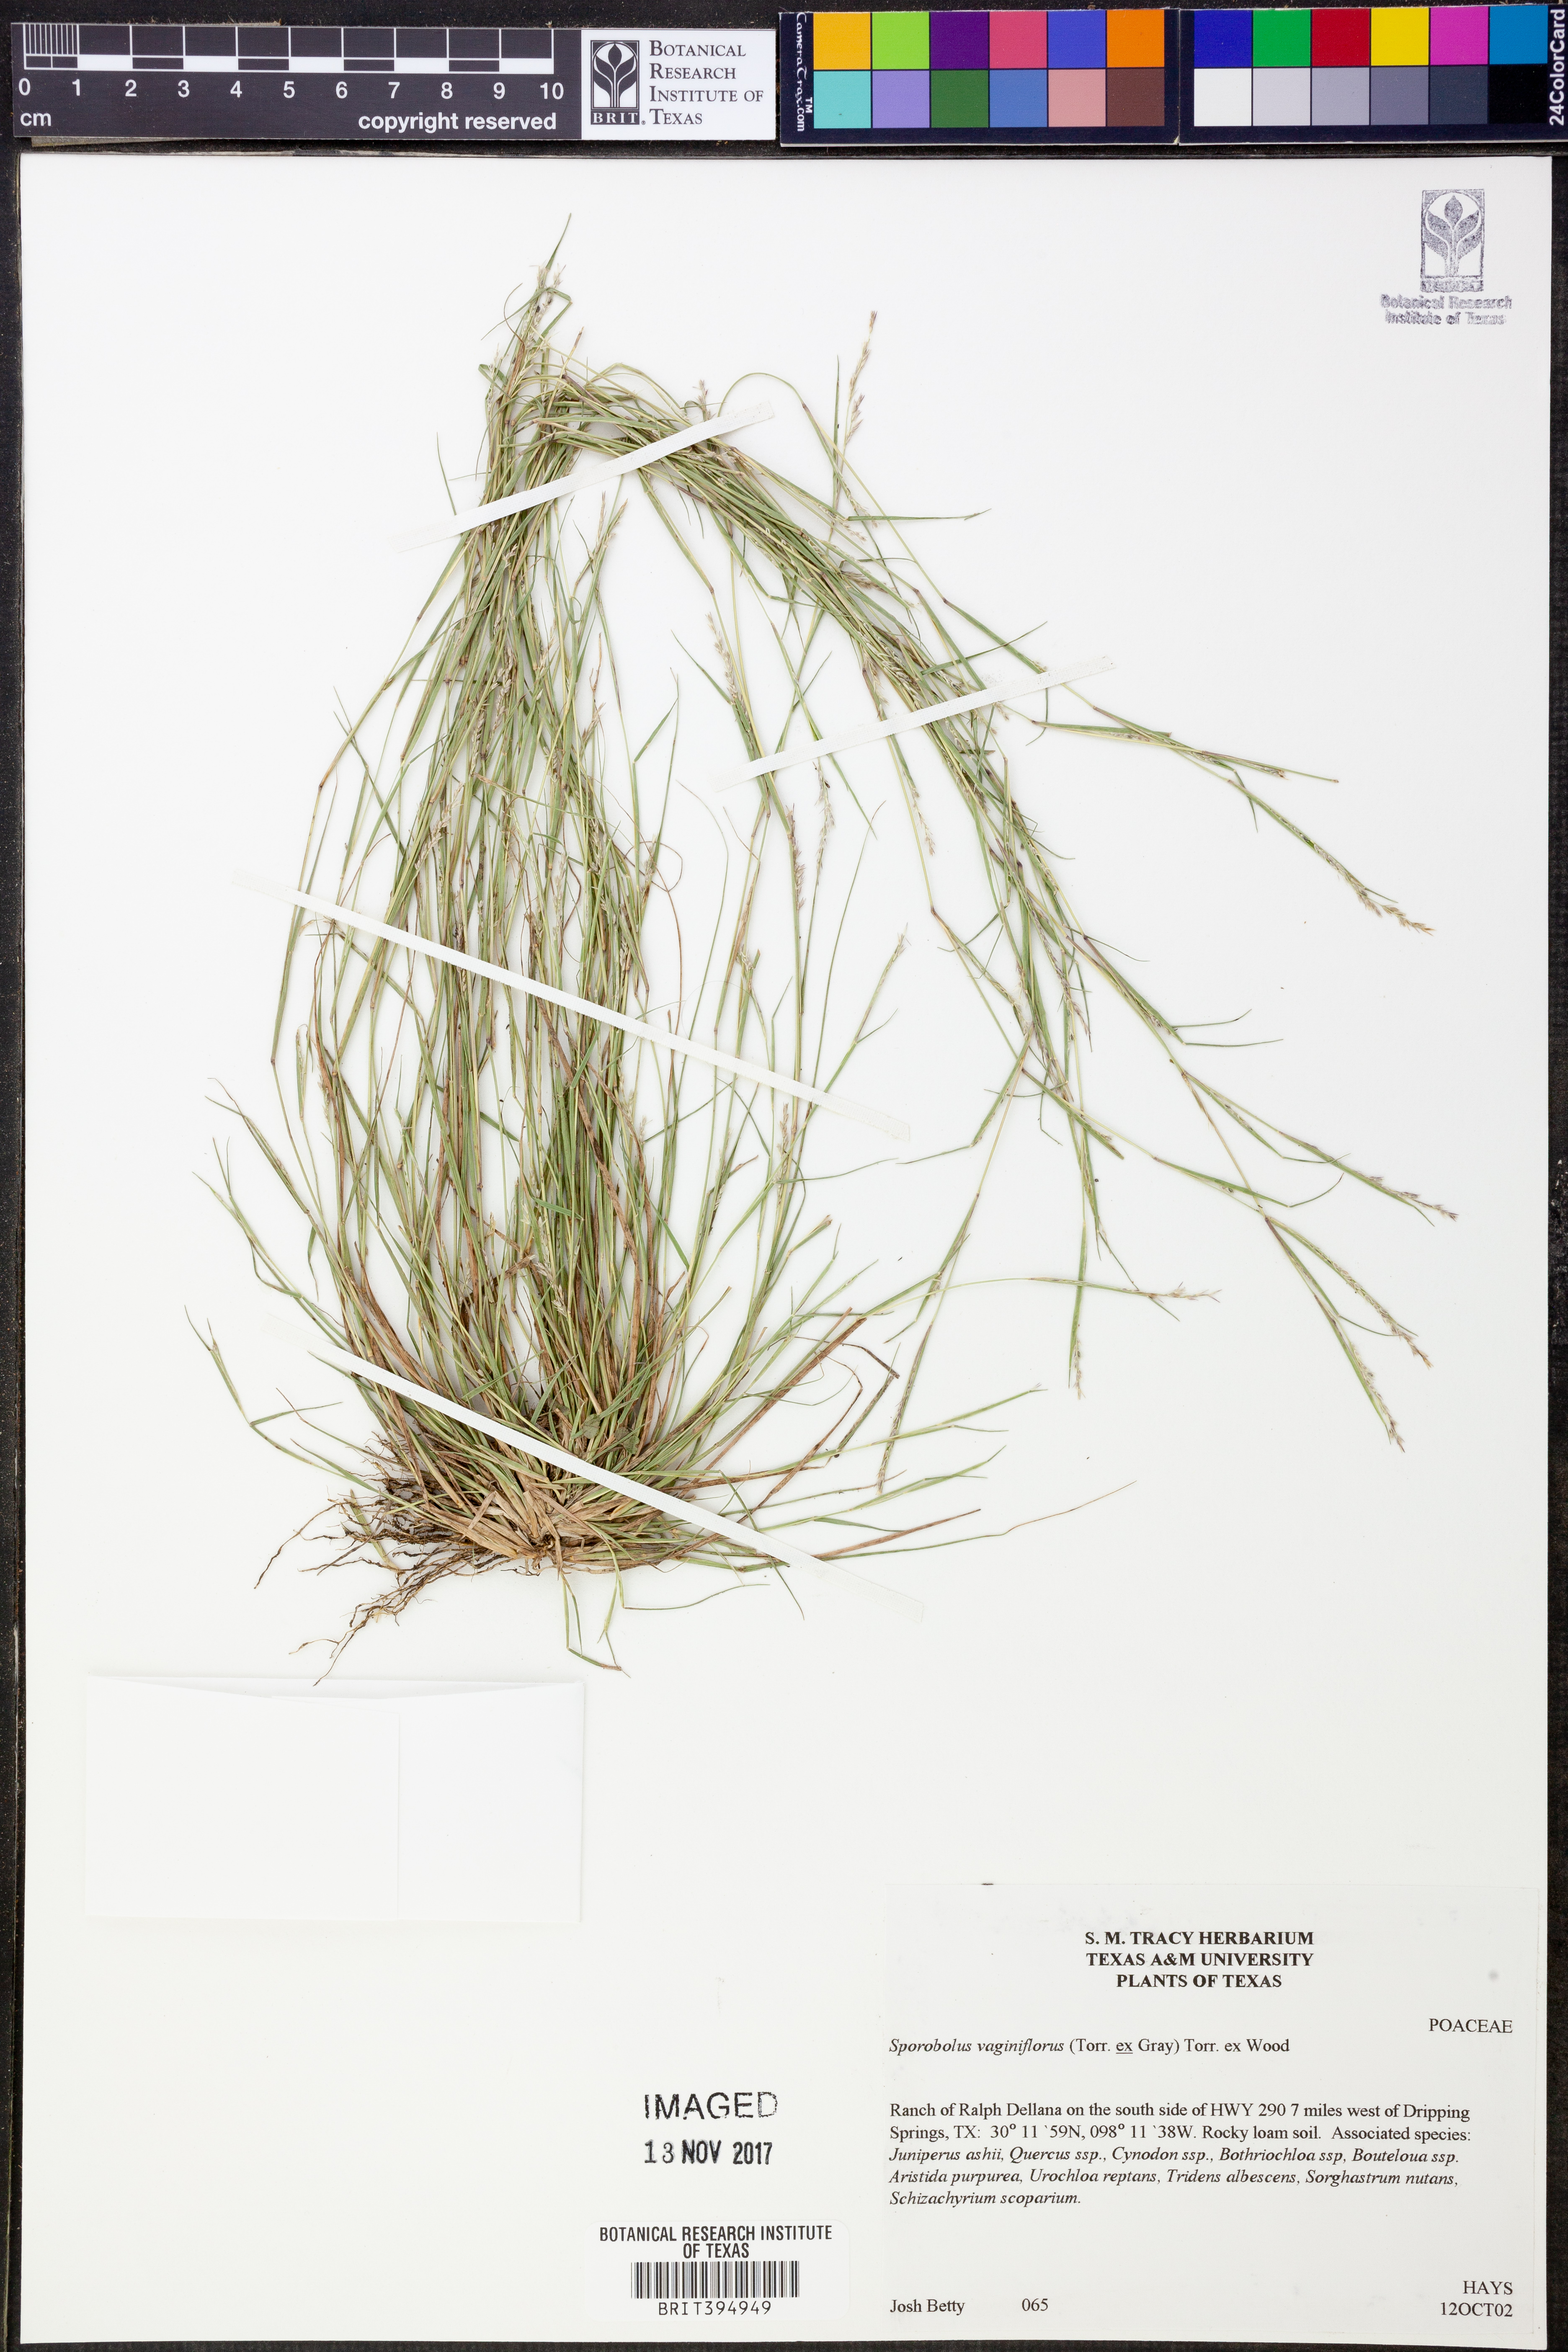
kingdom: Plantae
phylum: Tracheophyta
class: Liliopsida
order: Poales
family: Poaceae
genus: Sporobolus
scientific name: Sporobolus vaginiflorus
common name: Poverty dropseed
